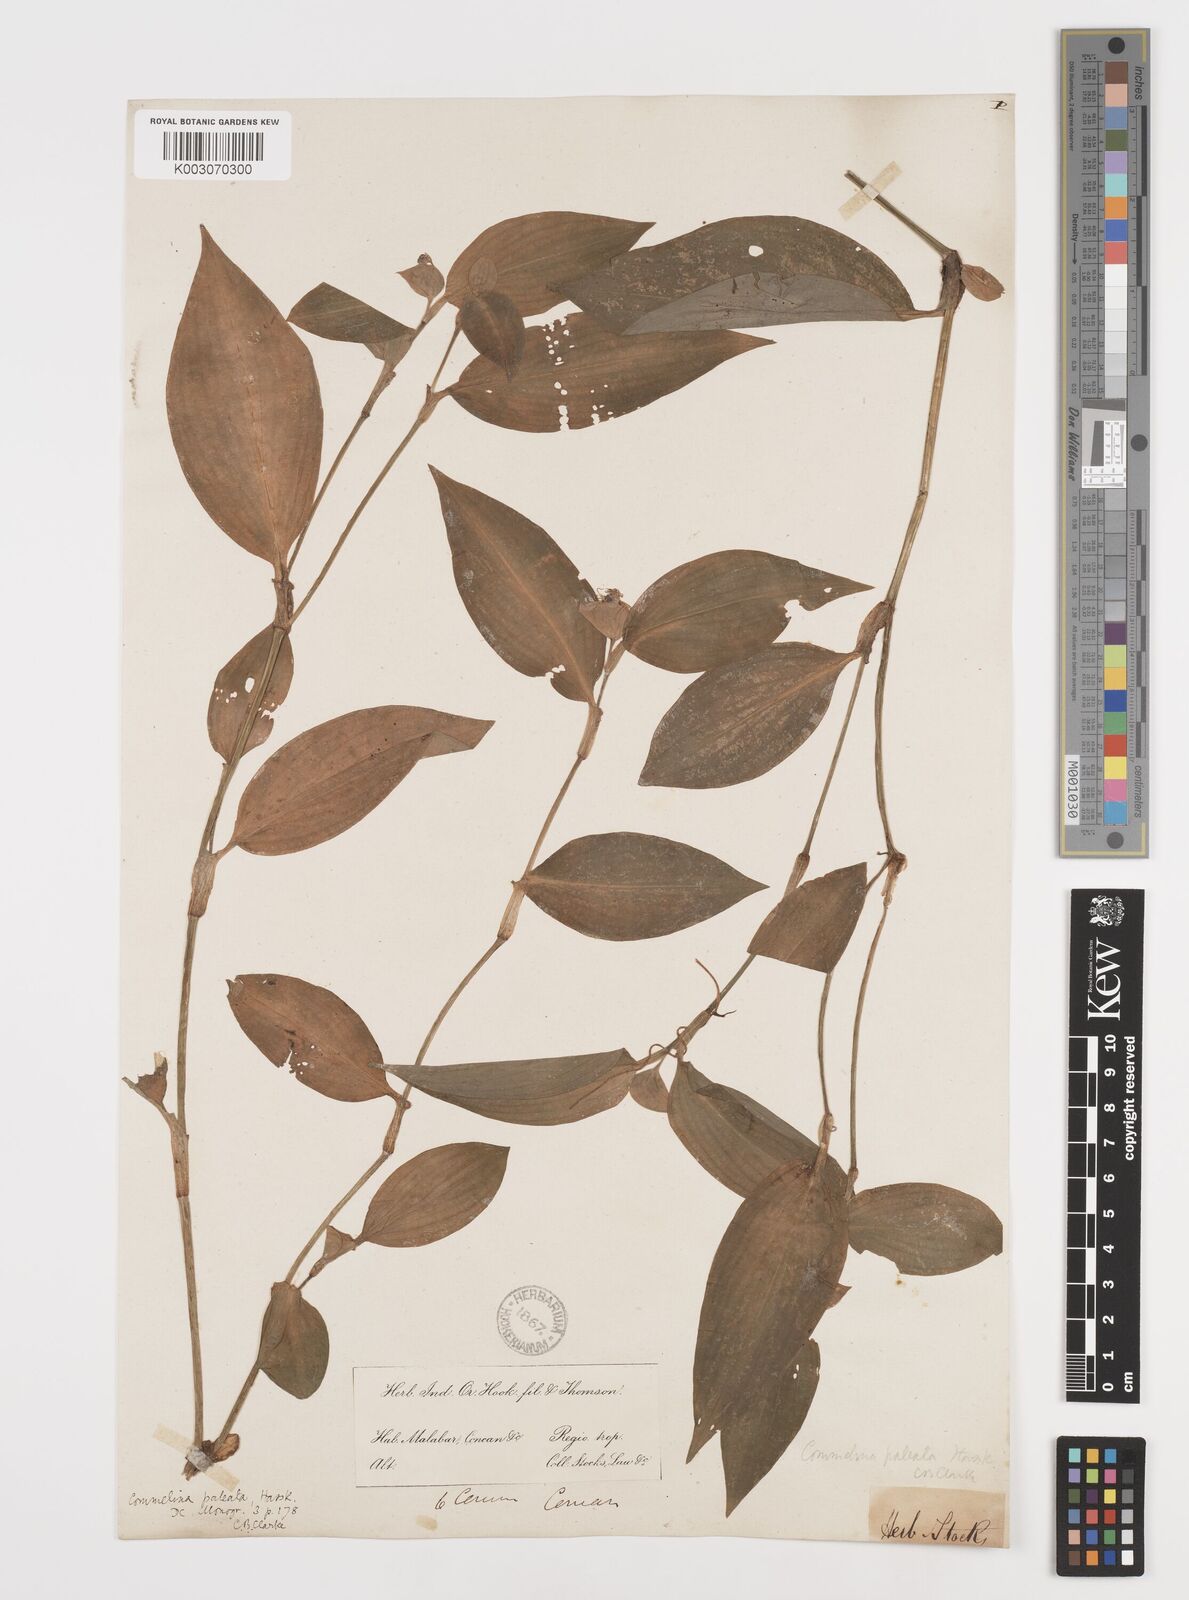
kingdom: Plantae
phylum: Tracheophyta
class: Liliopsida
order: Commelinales
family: Commelinaceae
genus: Commelina
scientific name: Commelina paleata
